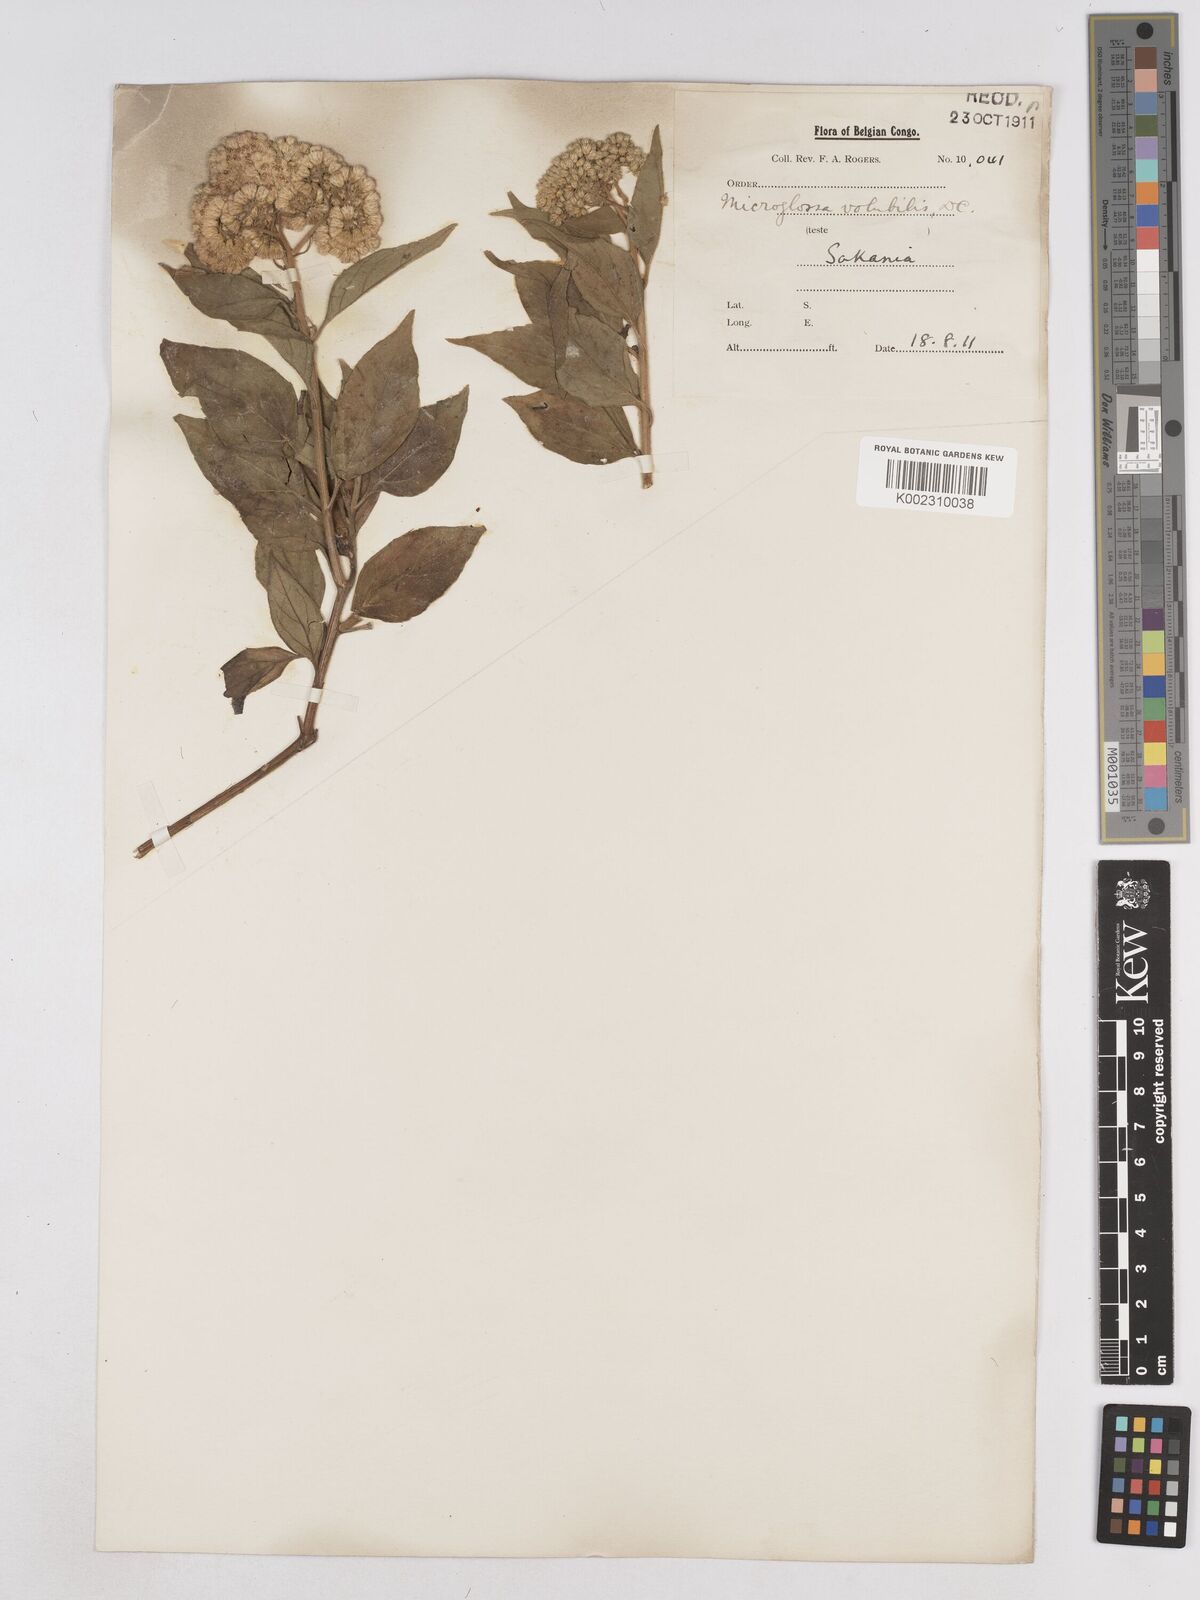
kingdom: Plantae
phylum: Tracheophyta
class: Magnoliopsida
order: Asterales
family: Asteraceae
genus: Microglossa
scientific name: Microglossa pyrifolia
